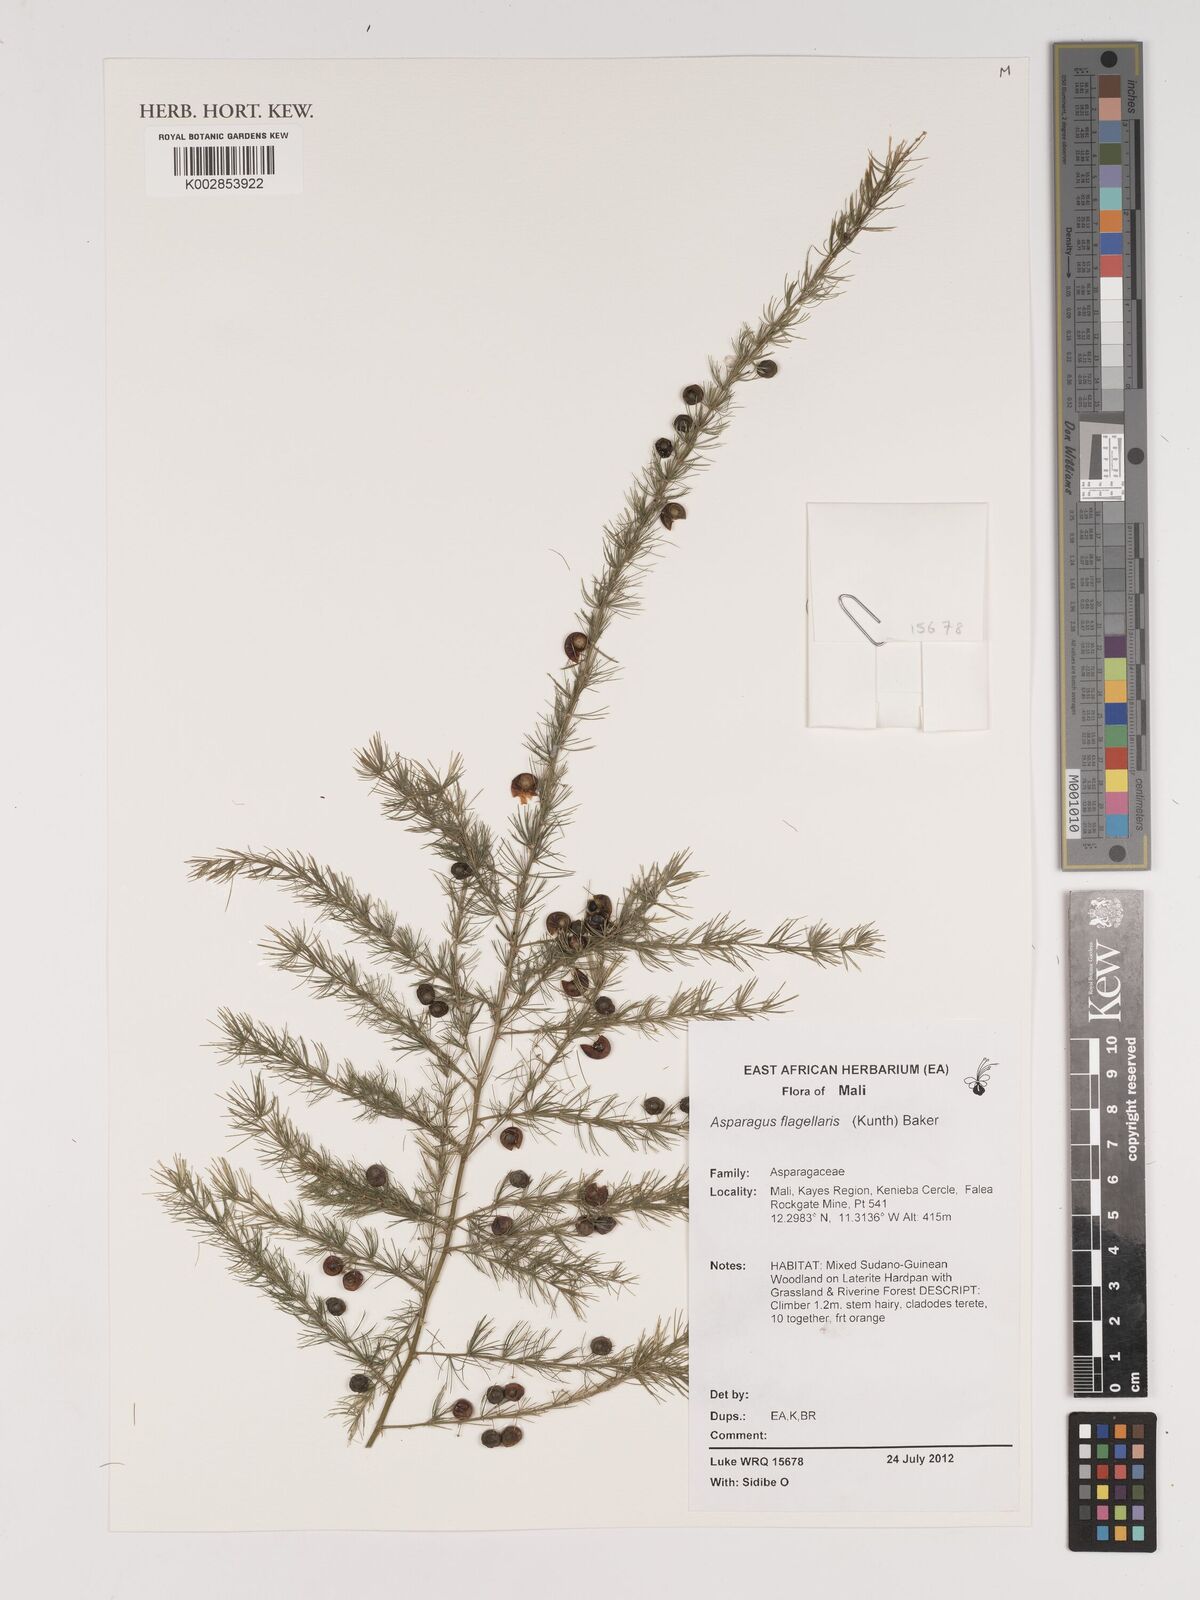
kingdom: Plantae
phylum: Tracheophyta
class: Liliopsida
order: Asparagales
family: Asparagaceae
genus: Asparagus
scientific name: Asparagus flagellaris
